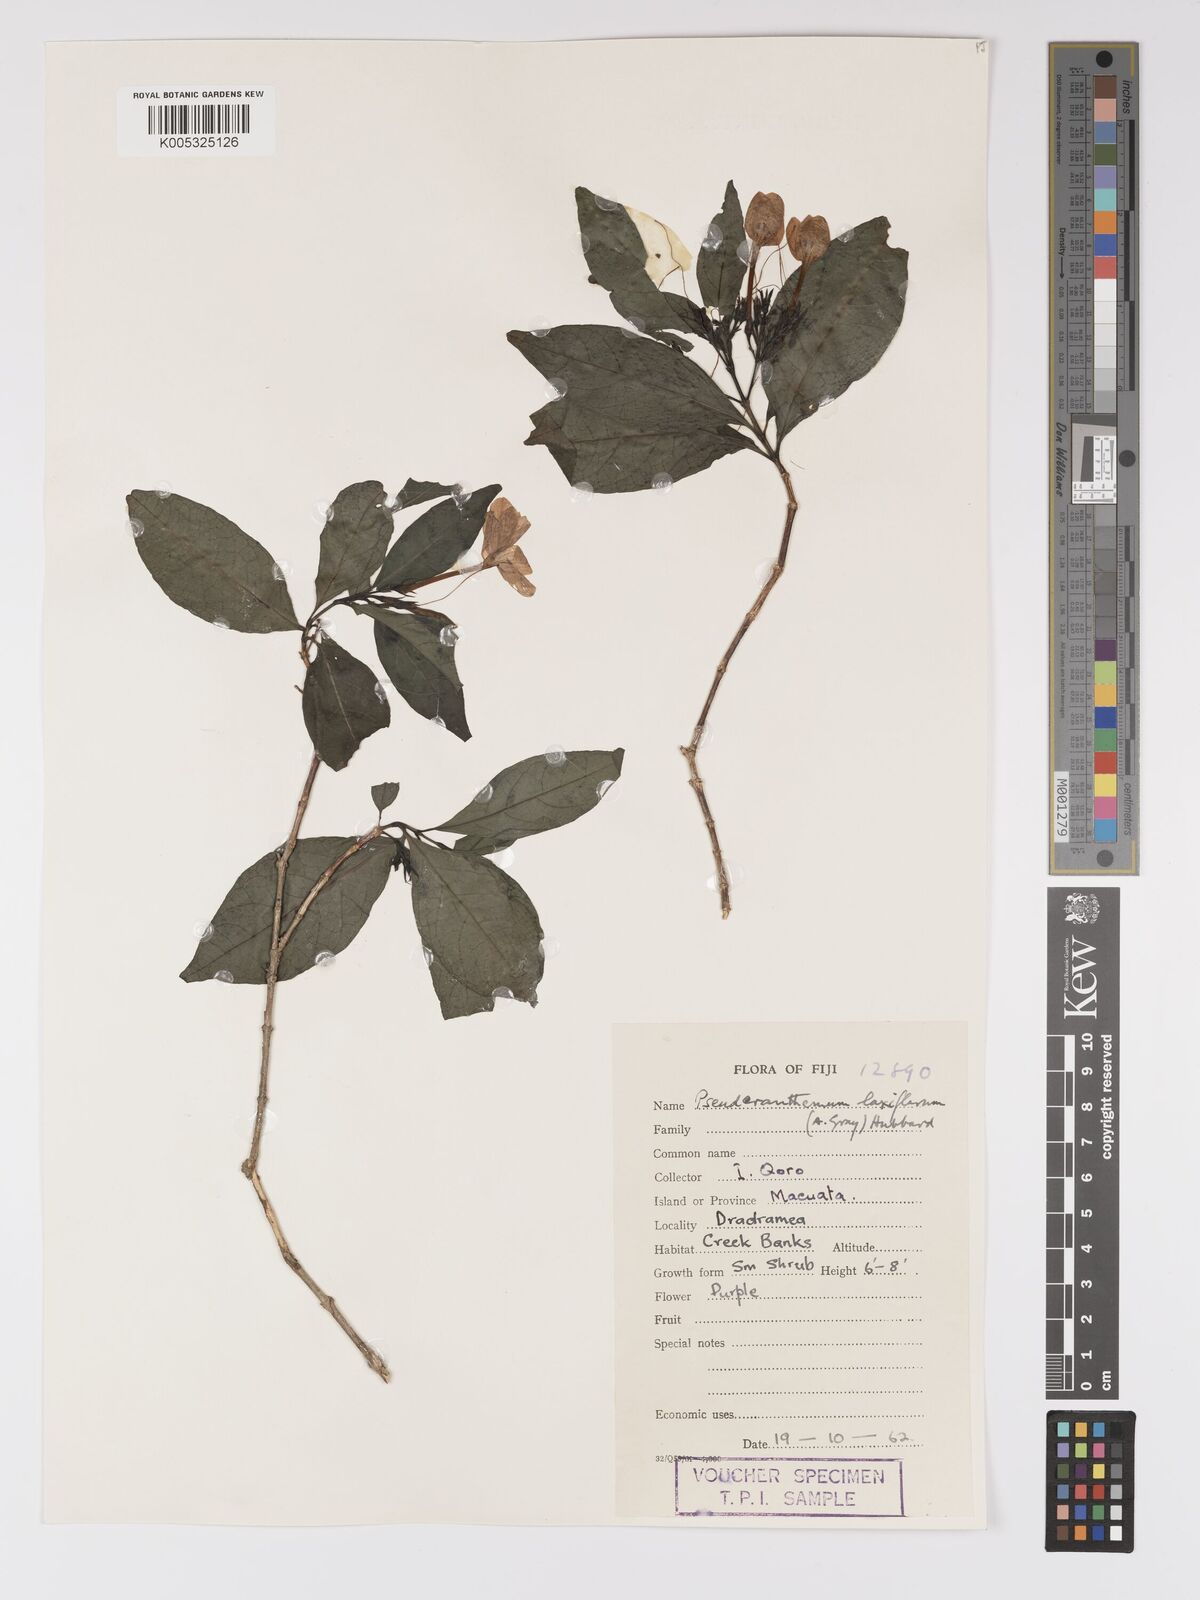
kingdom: Plantae
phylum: Tracheophyta
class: Magnoliopsida
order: Lamiales
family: Acanthaceae
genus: Pseuderanthemum
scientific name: Pseuderanthemum laxiflorum
